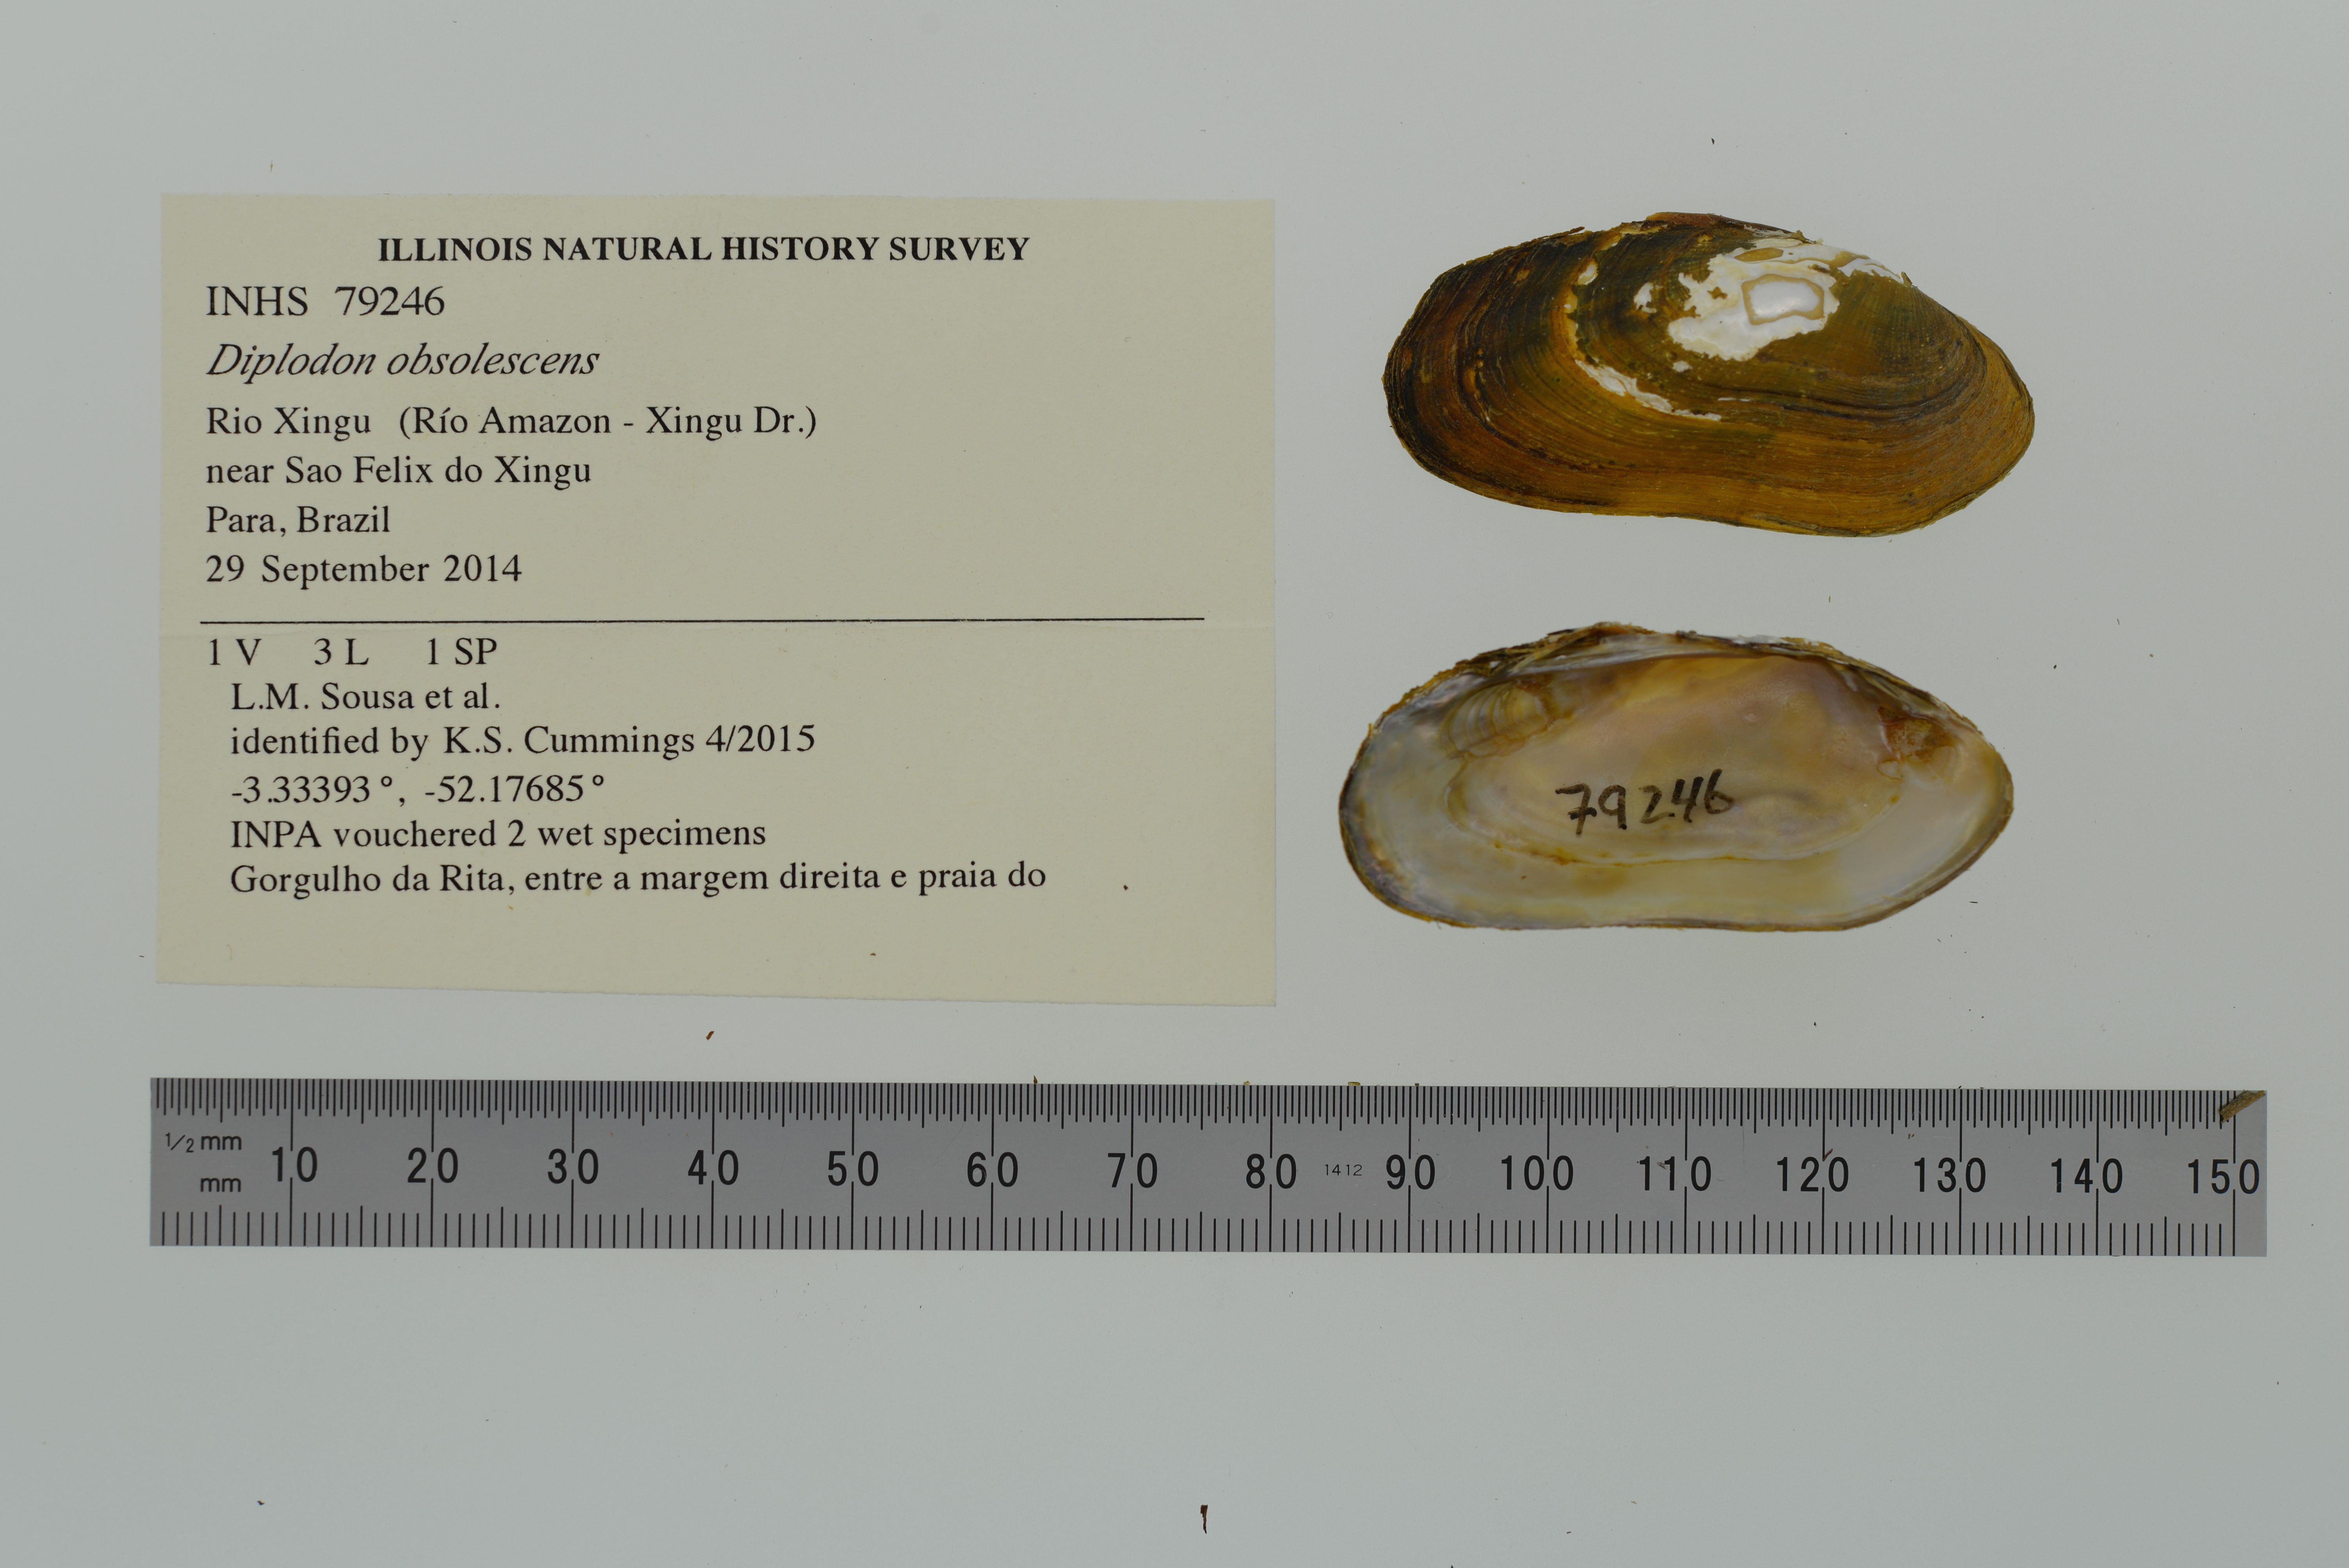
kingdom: Animalia
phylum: Mollusca
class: Bivalvia
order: Unionida
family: Hyriidae
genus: Diplodon
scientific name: Diplodon obsolescens
